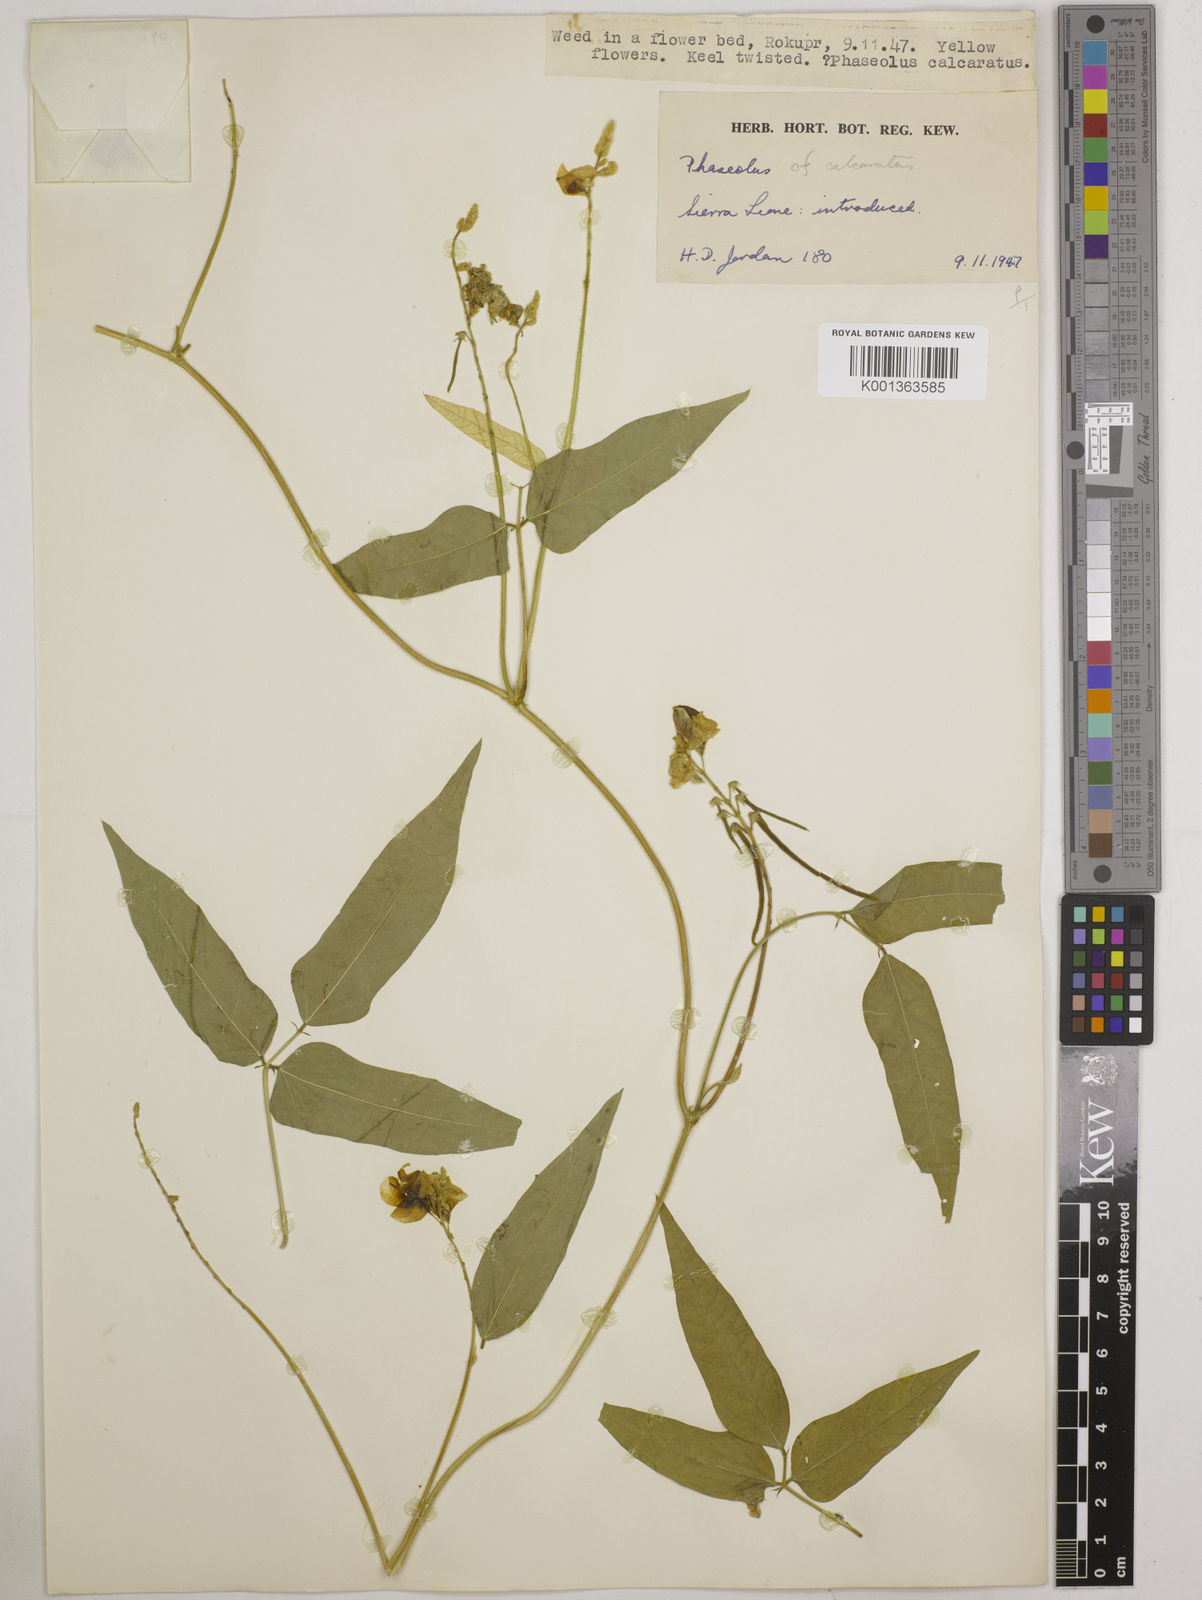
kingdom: Plantae
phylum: Tracheophyta
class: Magnoliopsida
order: Fabales
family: Fabaceae
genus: Vigna
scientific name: Vigna umbellata
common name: Oriental-bean
